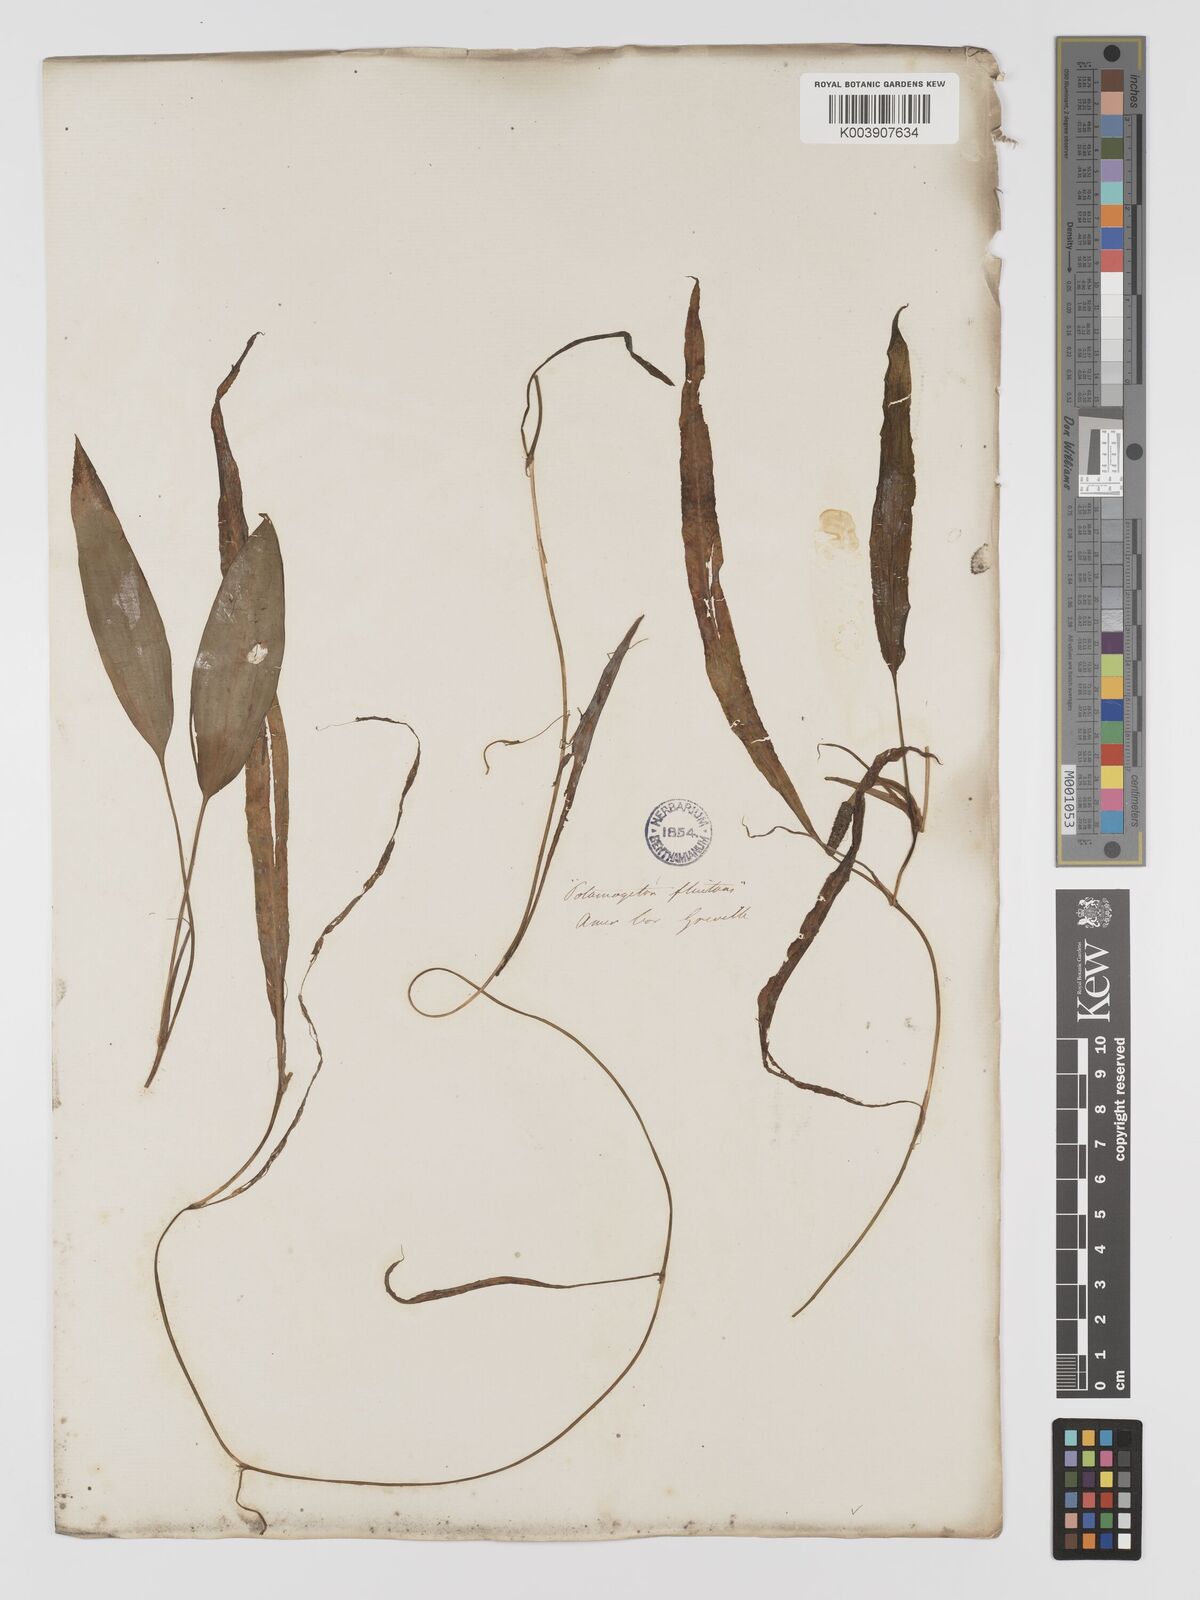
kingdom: Plantae
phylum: Tracheophyta
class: Liliopsida
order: Alismatales
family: Potamogetonaceae
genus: Potamogeton
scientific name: Potamogeton nodosus
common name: Loddon pondweed
